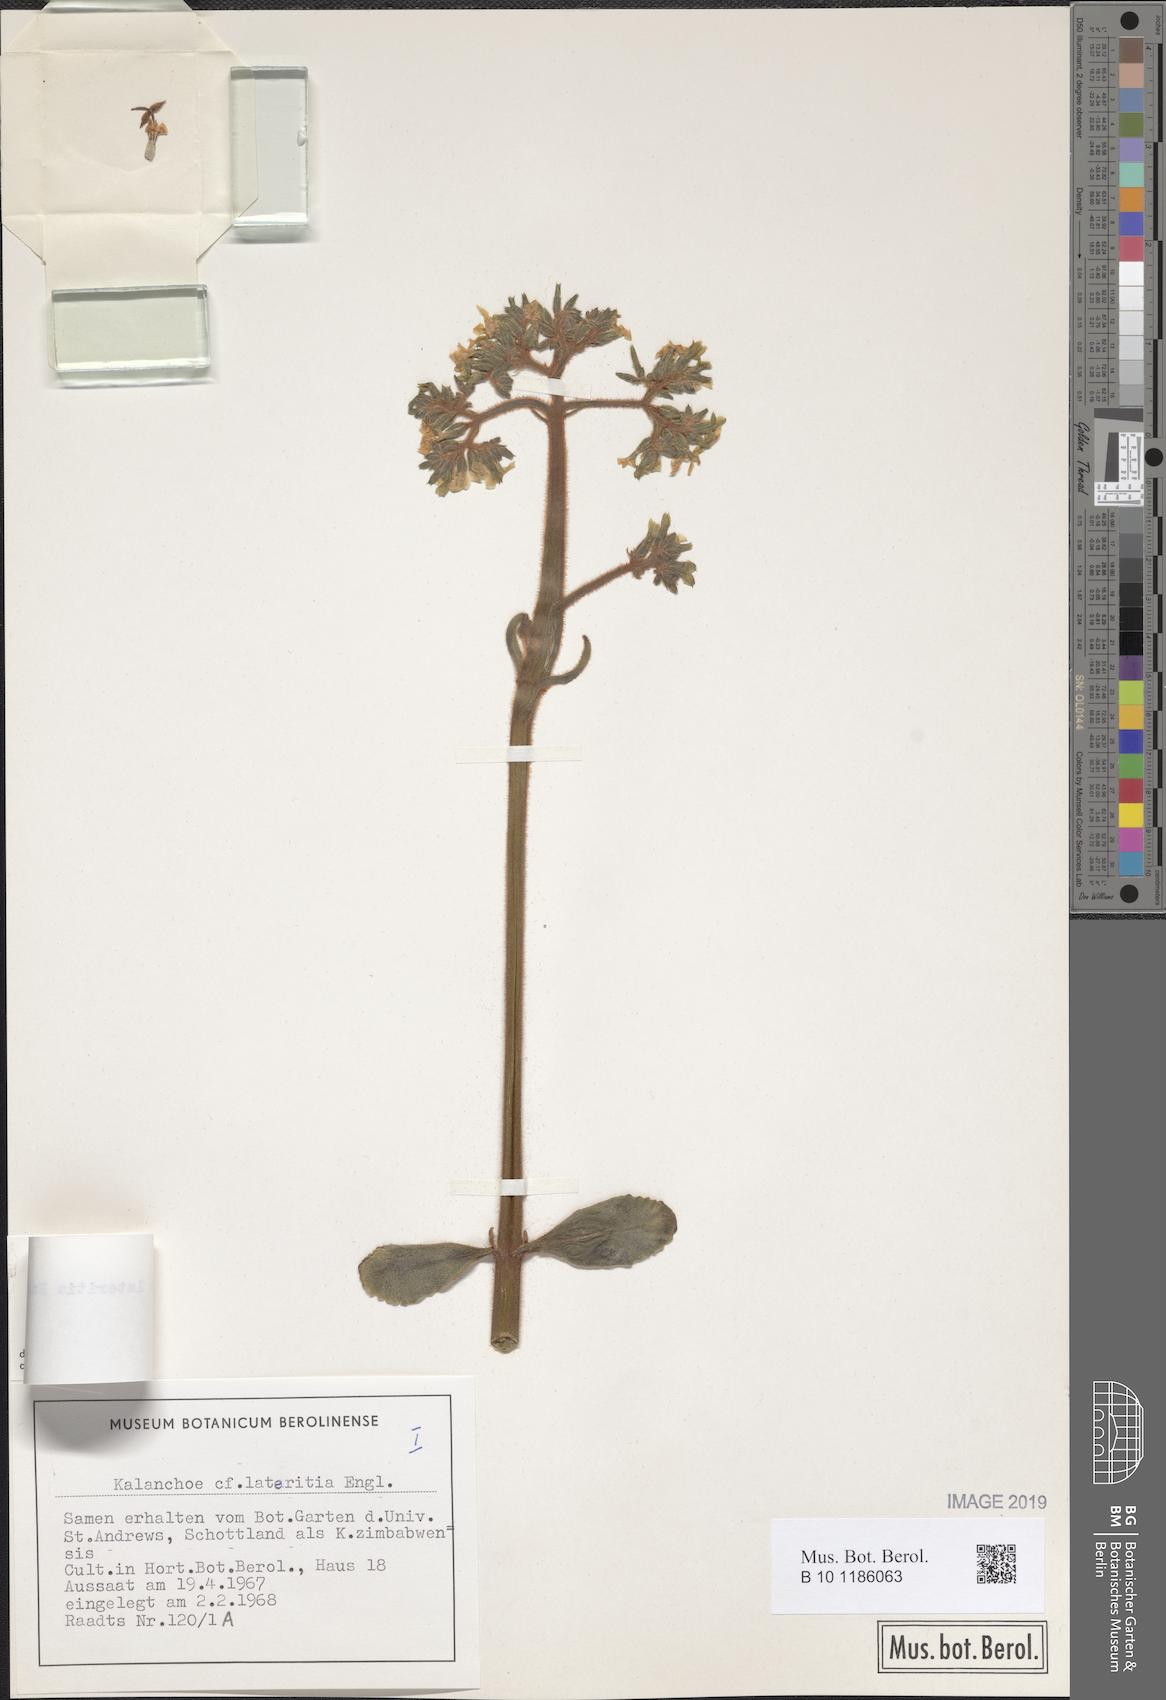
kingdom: Plantae
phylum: Tracheophyta
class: Magnoliopsida
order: Saxifragales
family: Crassulaceae
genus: Kalanchoe
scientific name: Kalanchoe lateritia
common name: Kalanchoe
